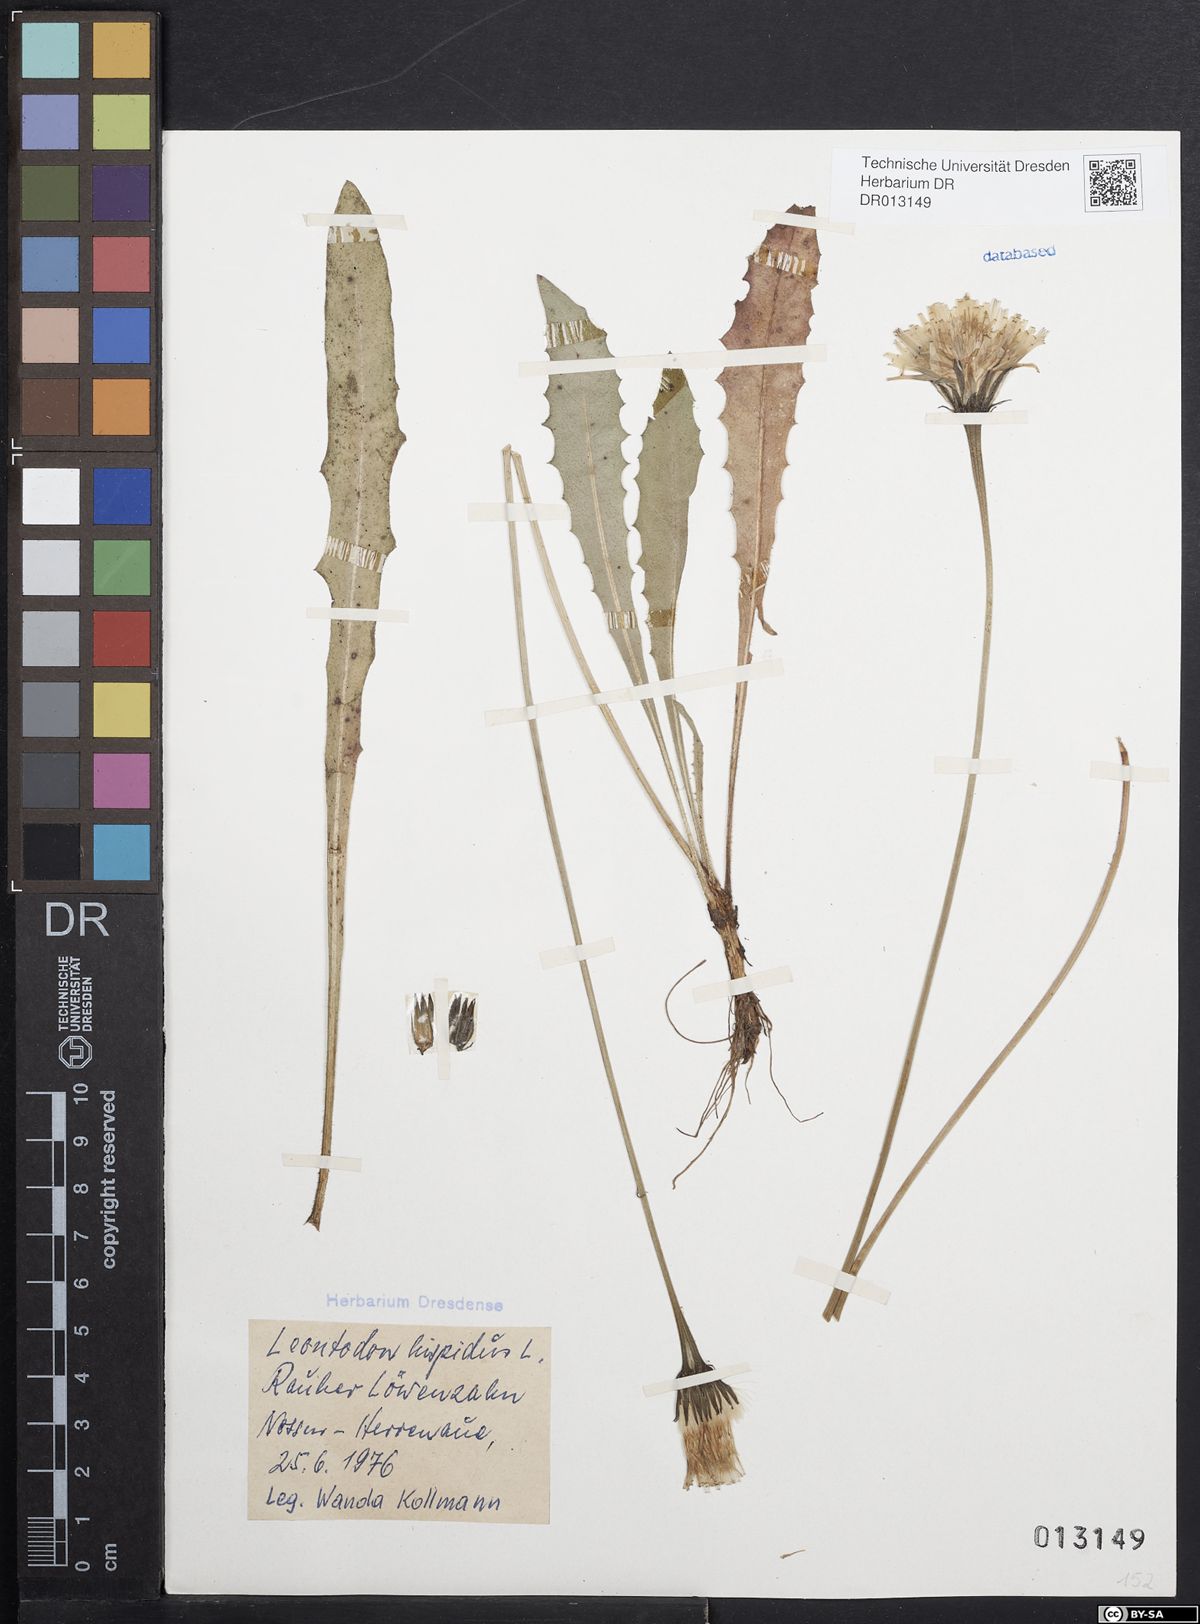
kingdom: Plantae
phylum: Tracheophyta
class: Magnoliopsida
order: Asterales
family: Asteraceae
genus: Leontodon
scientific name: Leontodon hispidus
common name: Rough hawkbit
